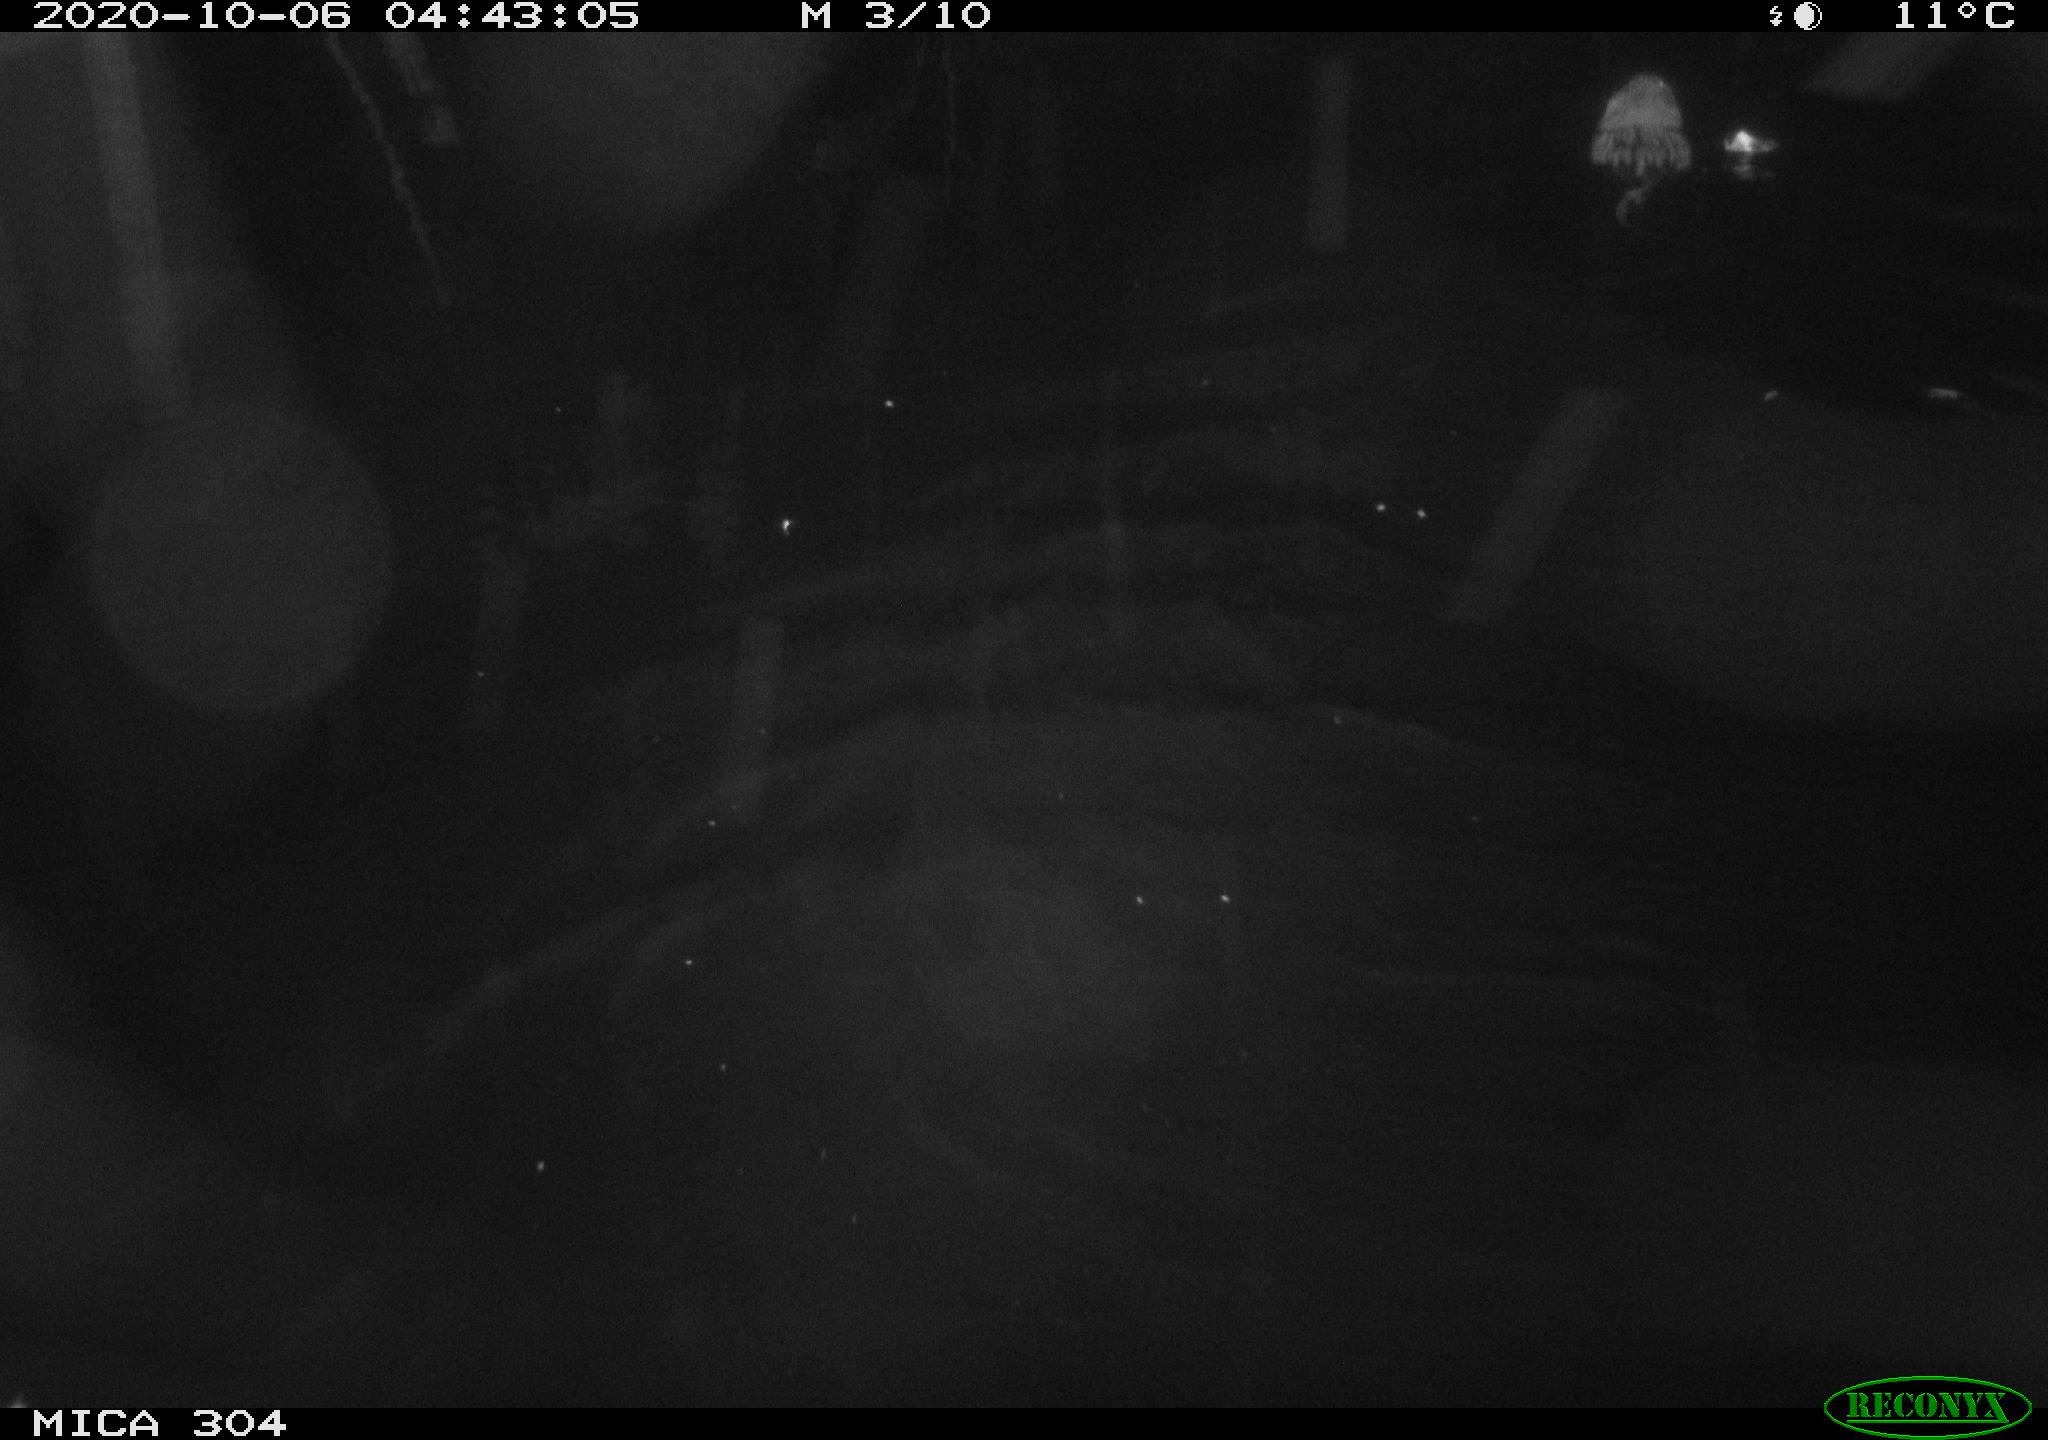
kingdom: Animalia
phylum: Chordata
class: Mammalia
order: Rodentia
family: Cricetidae
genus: Ondatra
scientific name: Ondatra zibethicus
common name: Muskrat
